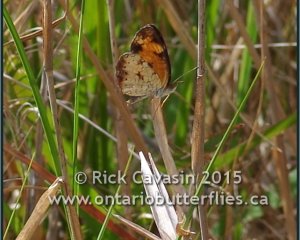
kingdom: Animalia
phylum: Arthropoda
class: Insecta
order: Lepidoptera
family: Nymphalidae
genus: Phyciodes
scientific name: Phyciodes tharos
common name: Pearl Crescent
